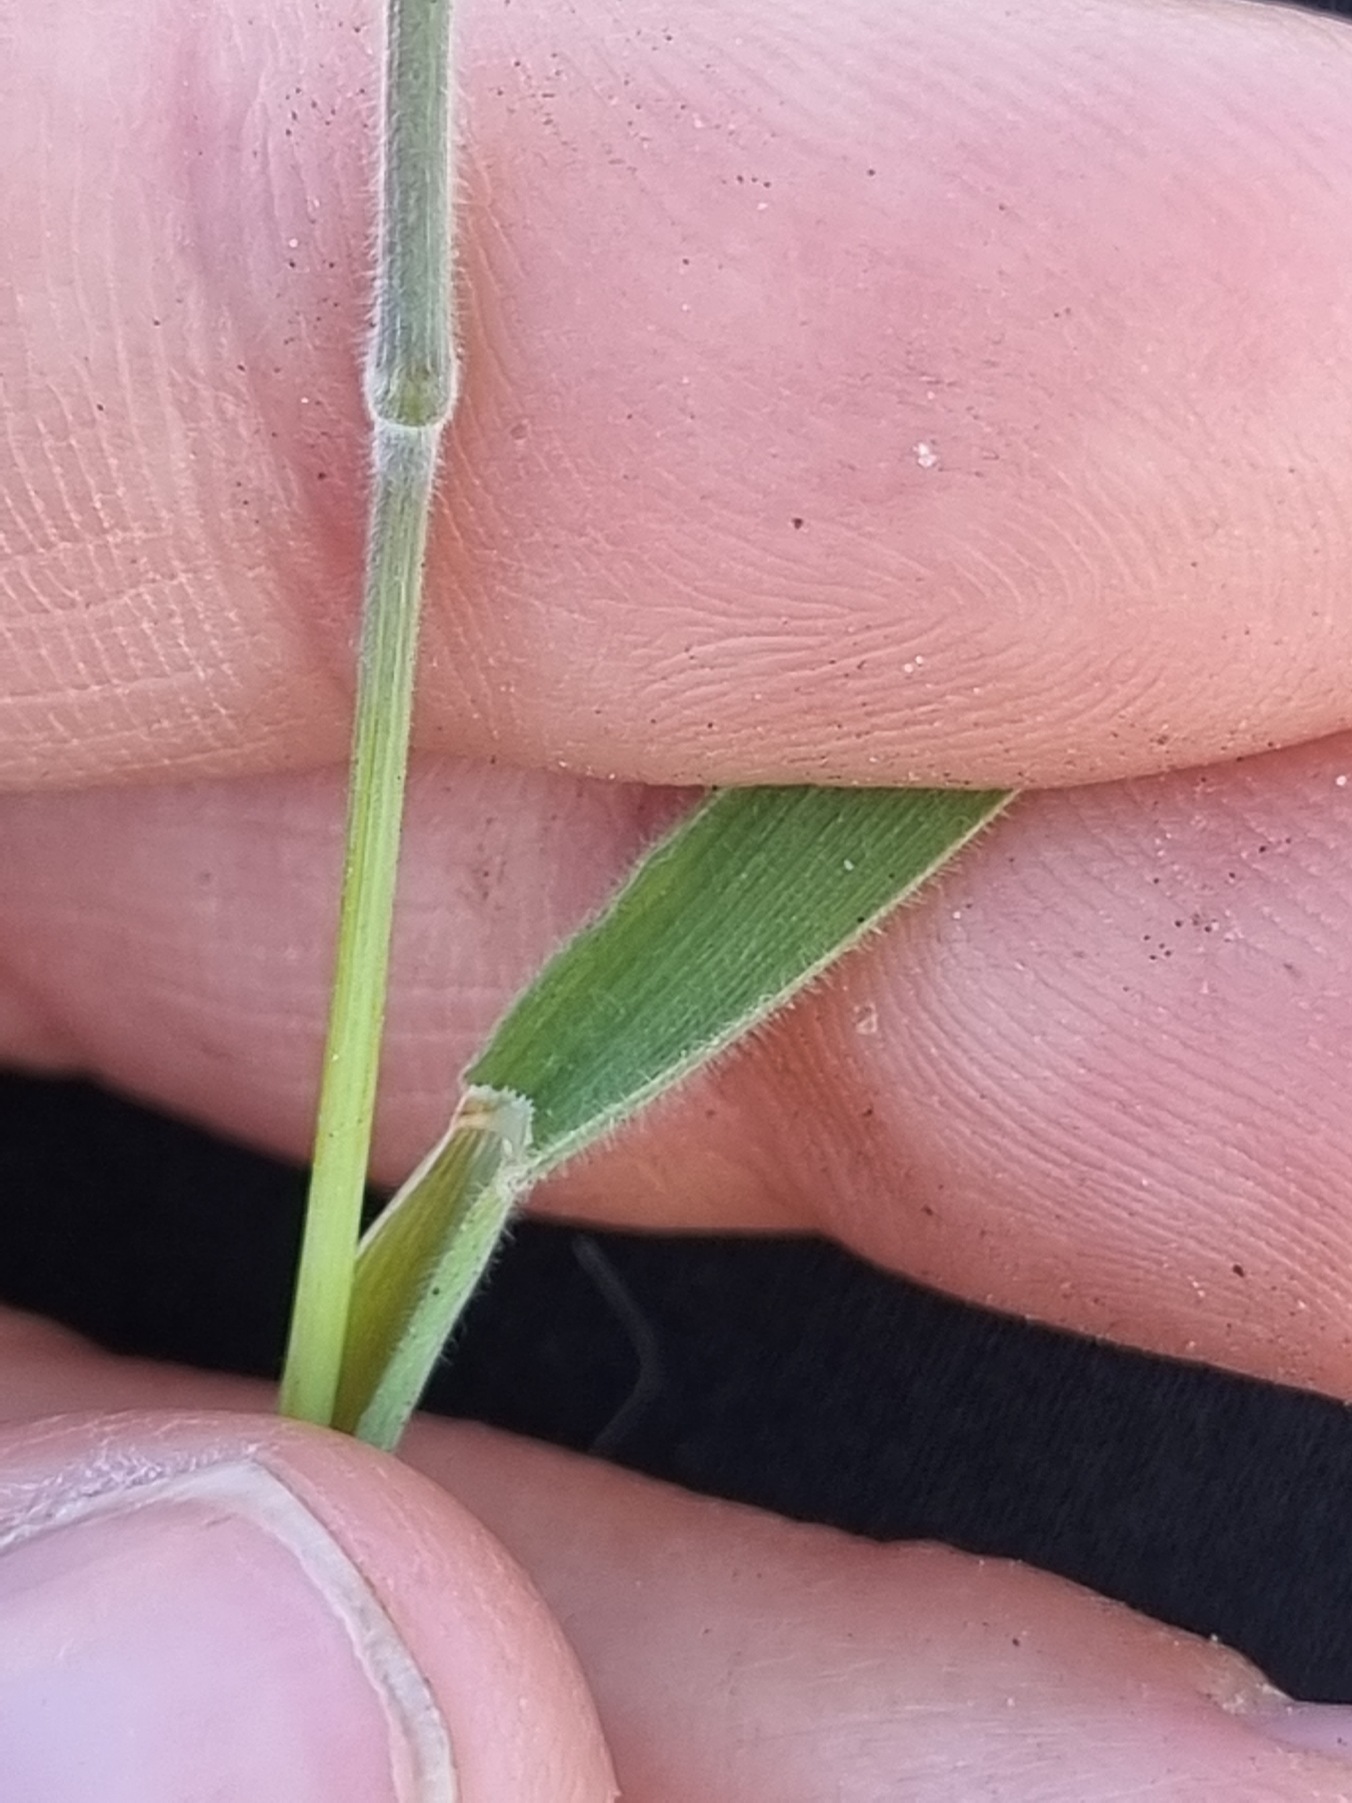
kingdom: Plantae
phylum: Tracheophyta
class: Liliopsida
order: Poales
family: Poaceae
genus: Holcus
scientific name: Holcus lanatus
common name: Fløjlsgræs
